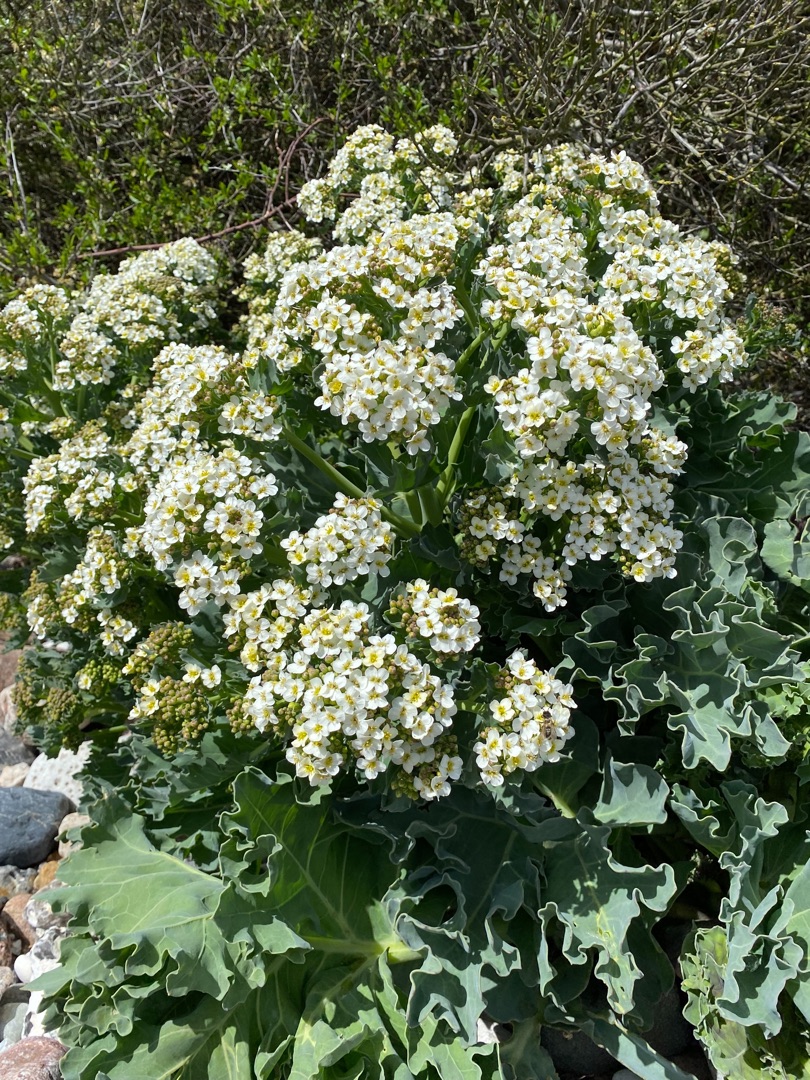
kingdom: Plantae
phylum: Tracheophyta
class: Magnoliopsida
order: Brassicales
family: Brassicaceae
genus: Crambe
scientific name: Crambe maritima
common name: Strandkål
